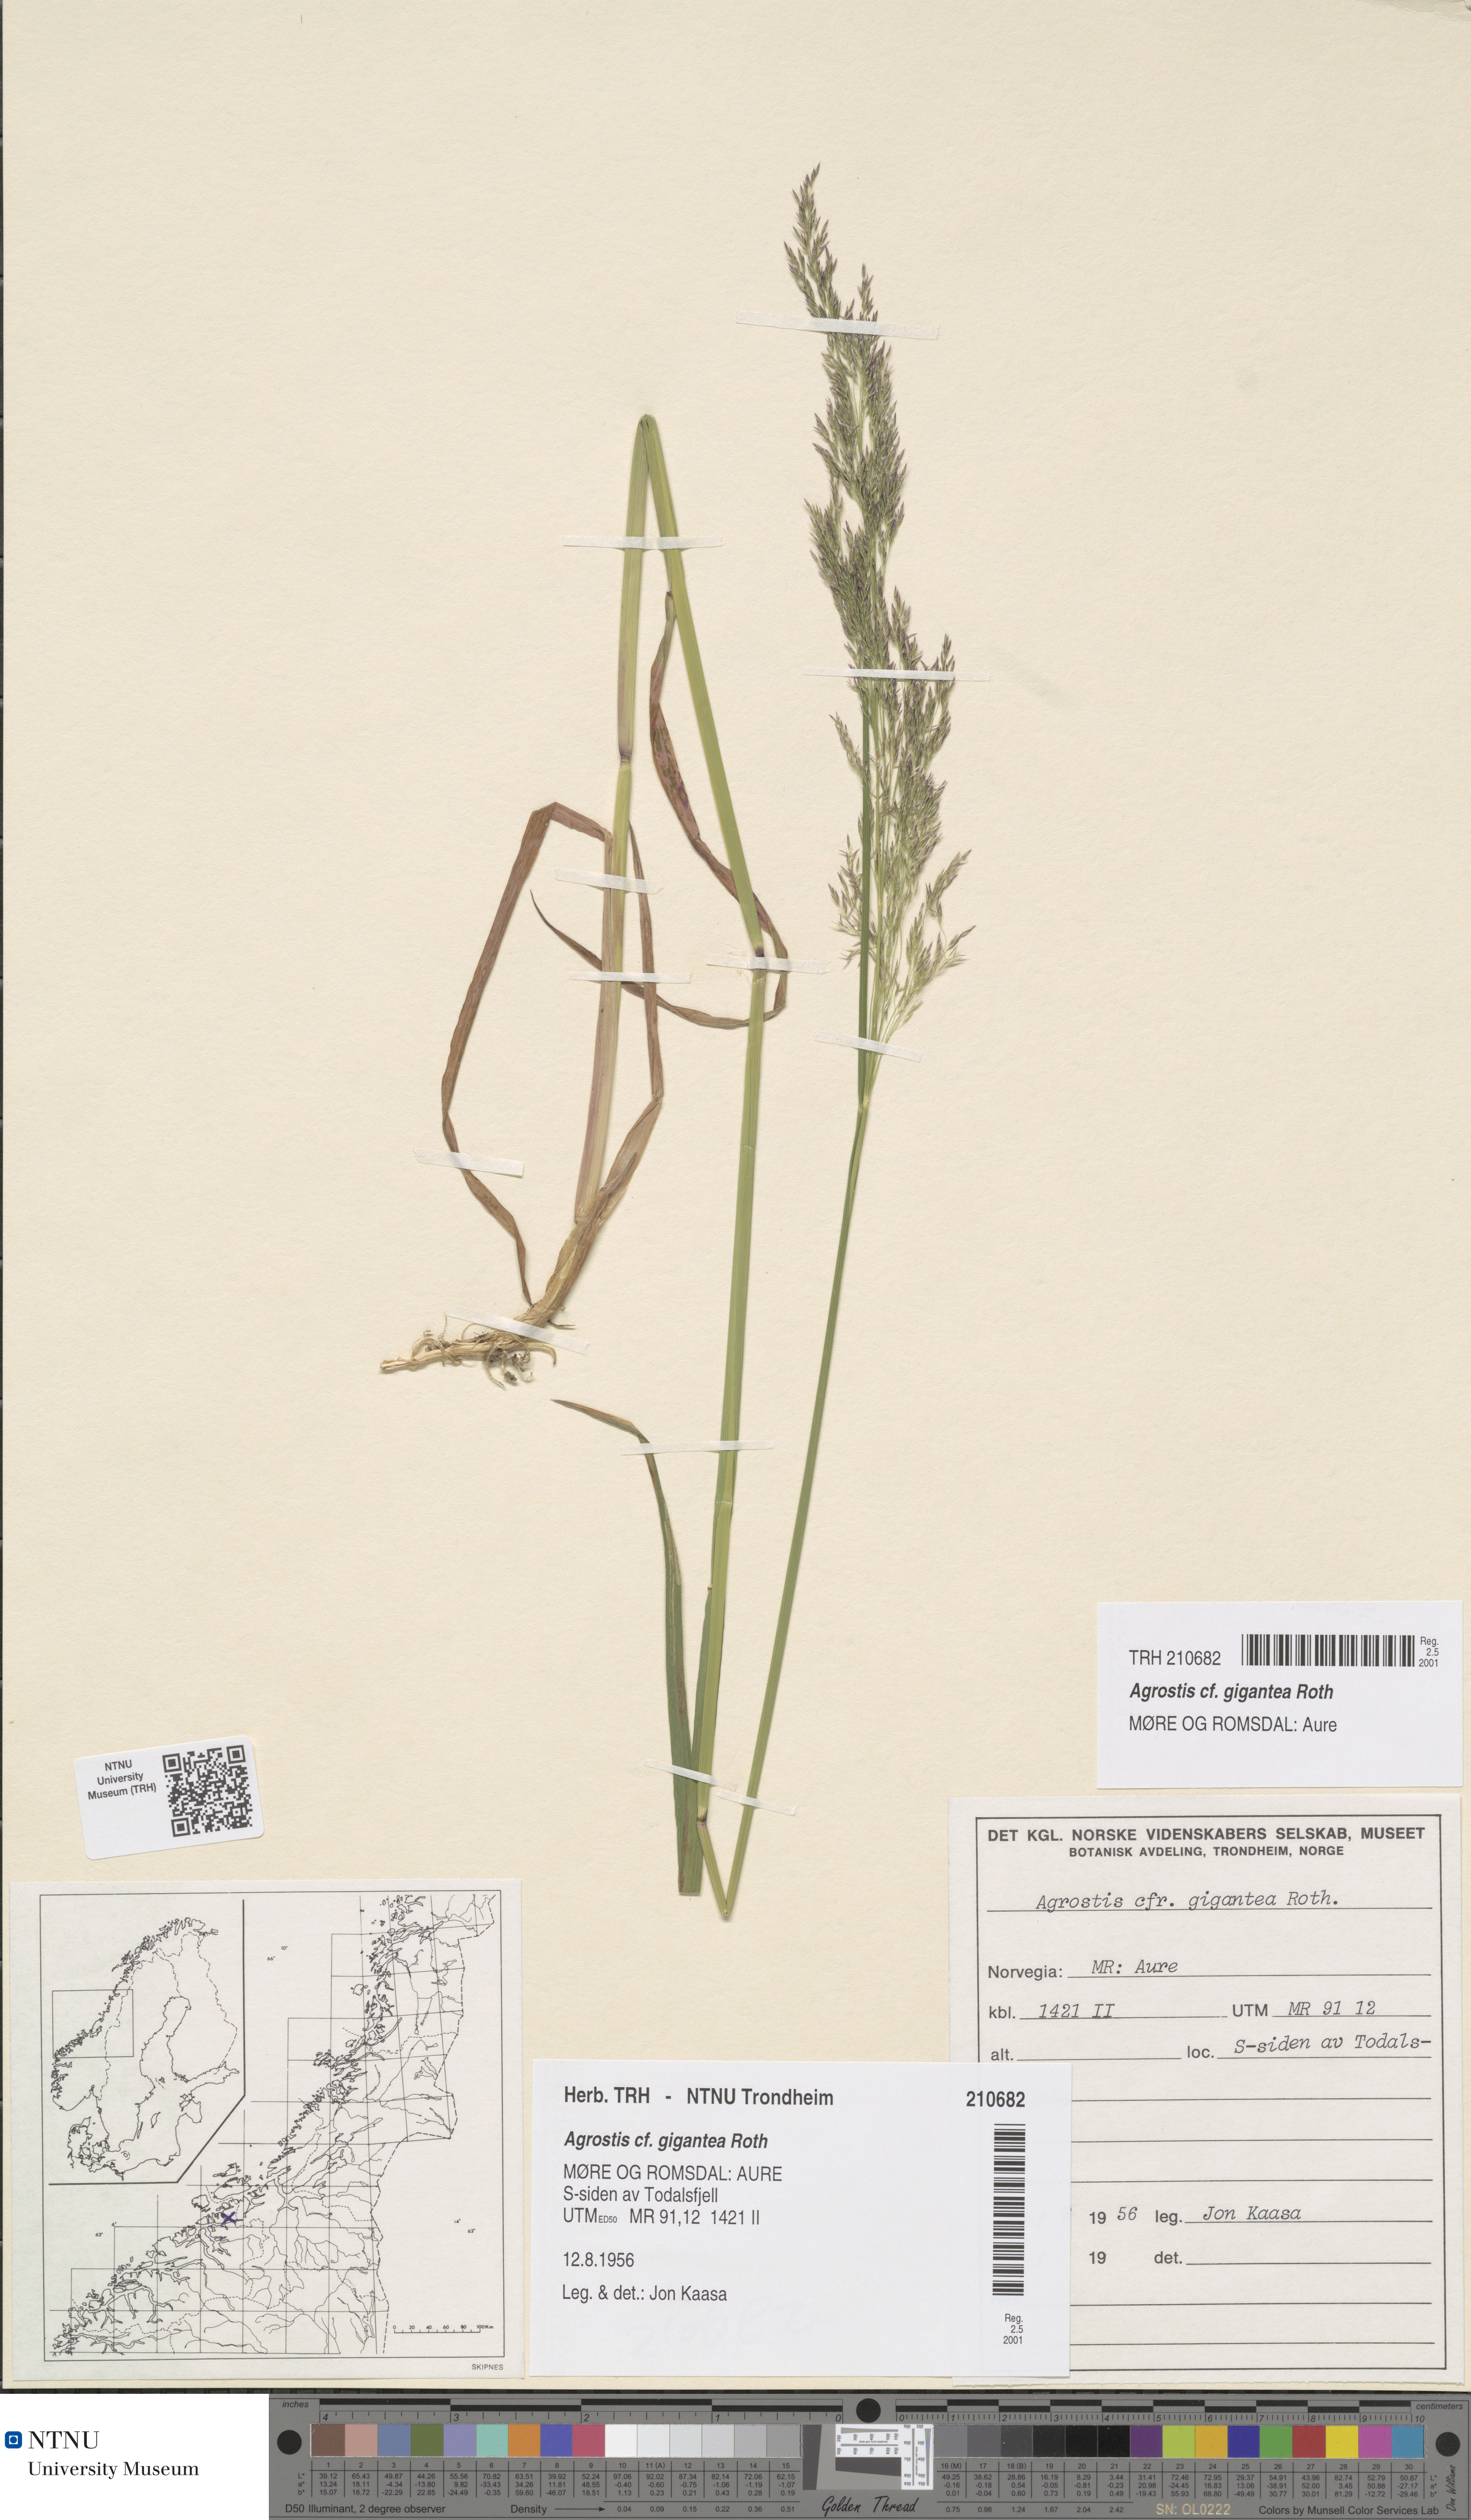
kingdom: Plantae
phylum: Tracheophyta
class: Liliopsida
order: Poales
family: Poaceae
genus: Agrostis
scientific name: Agrostis gigantea
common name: Black bent
